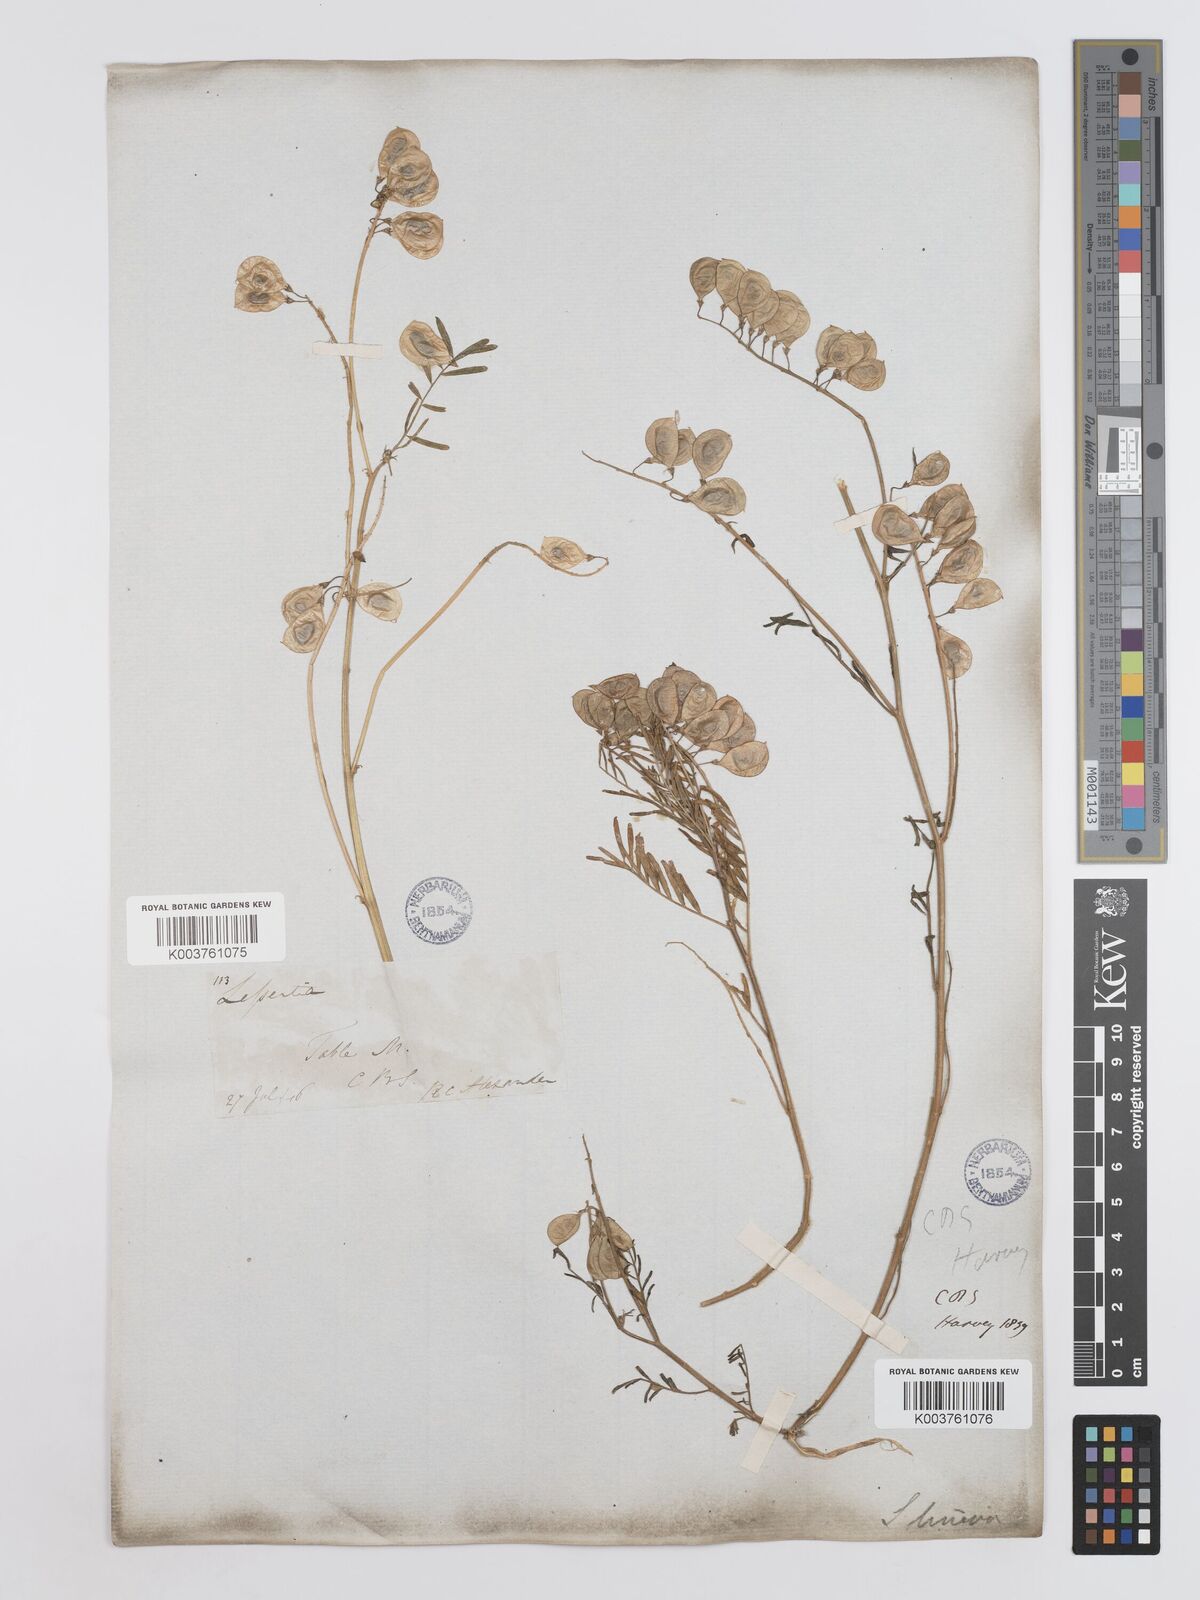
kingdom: Plantae
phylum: Tracheophyta
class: Magnoliopsida
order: Fabales
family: Fabaceae
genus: Lessertia
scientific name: Lessertia herbacea
